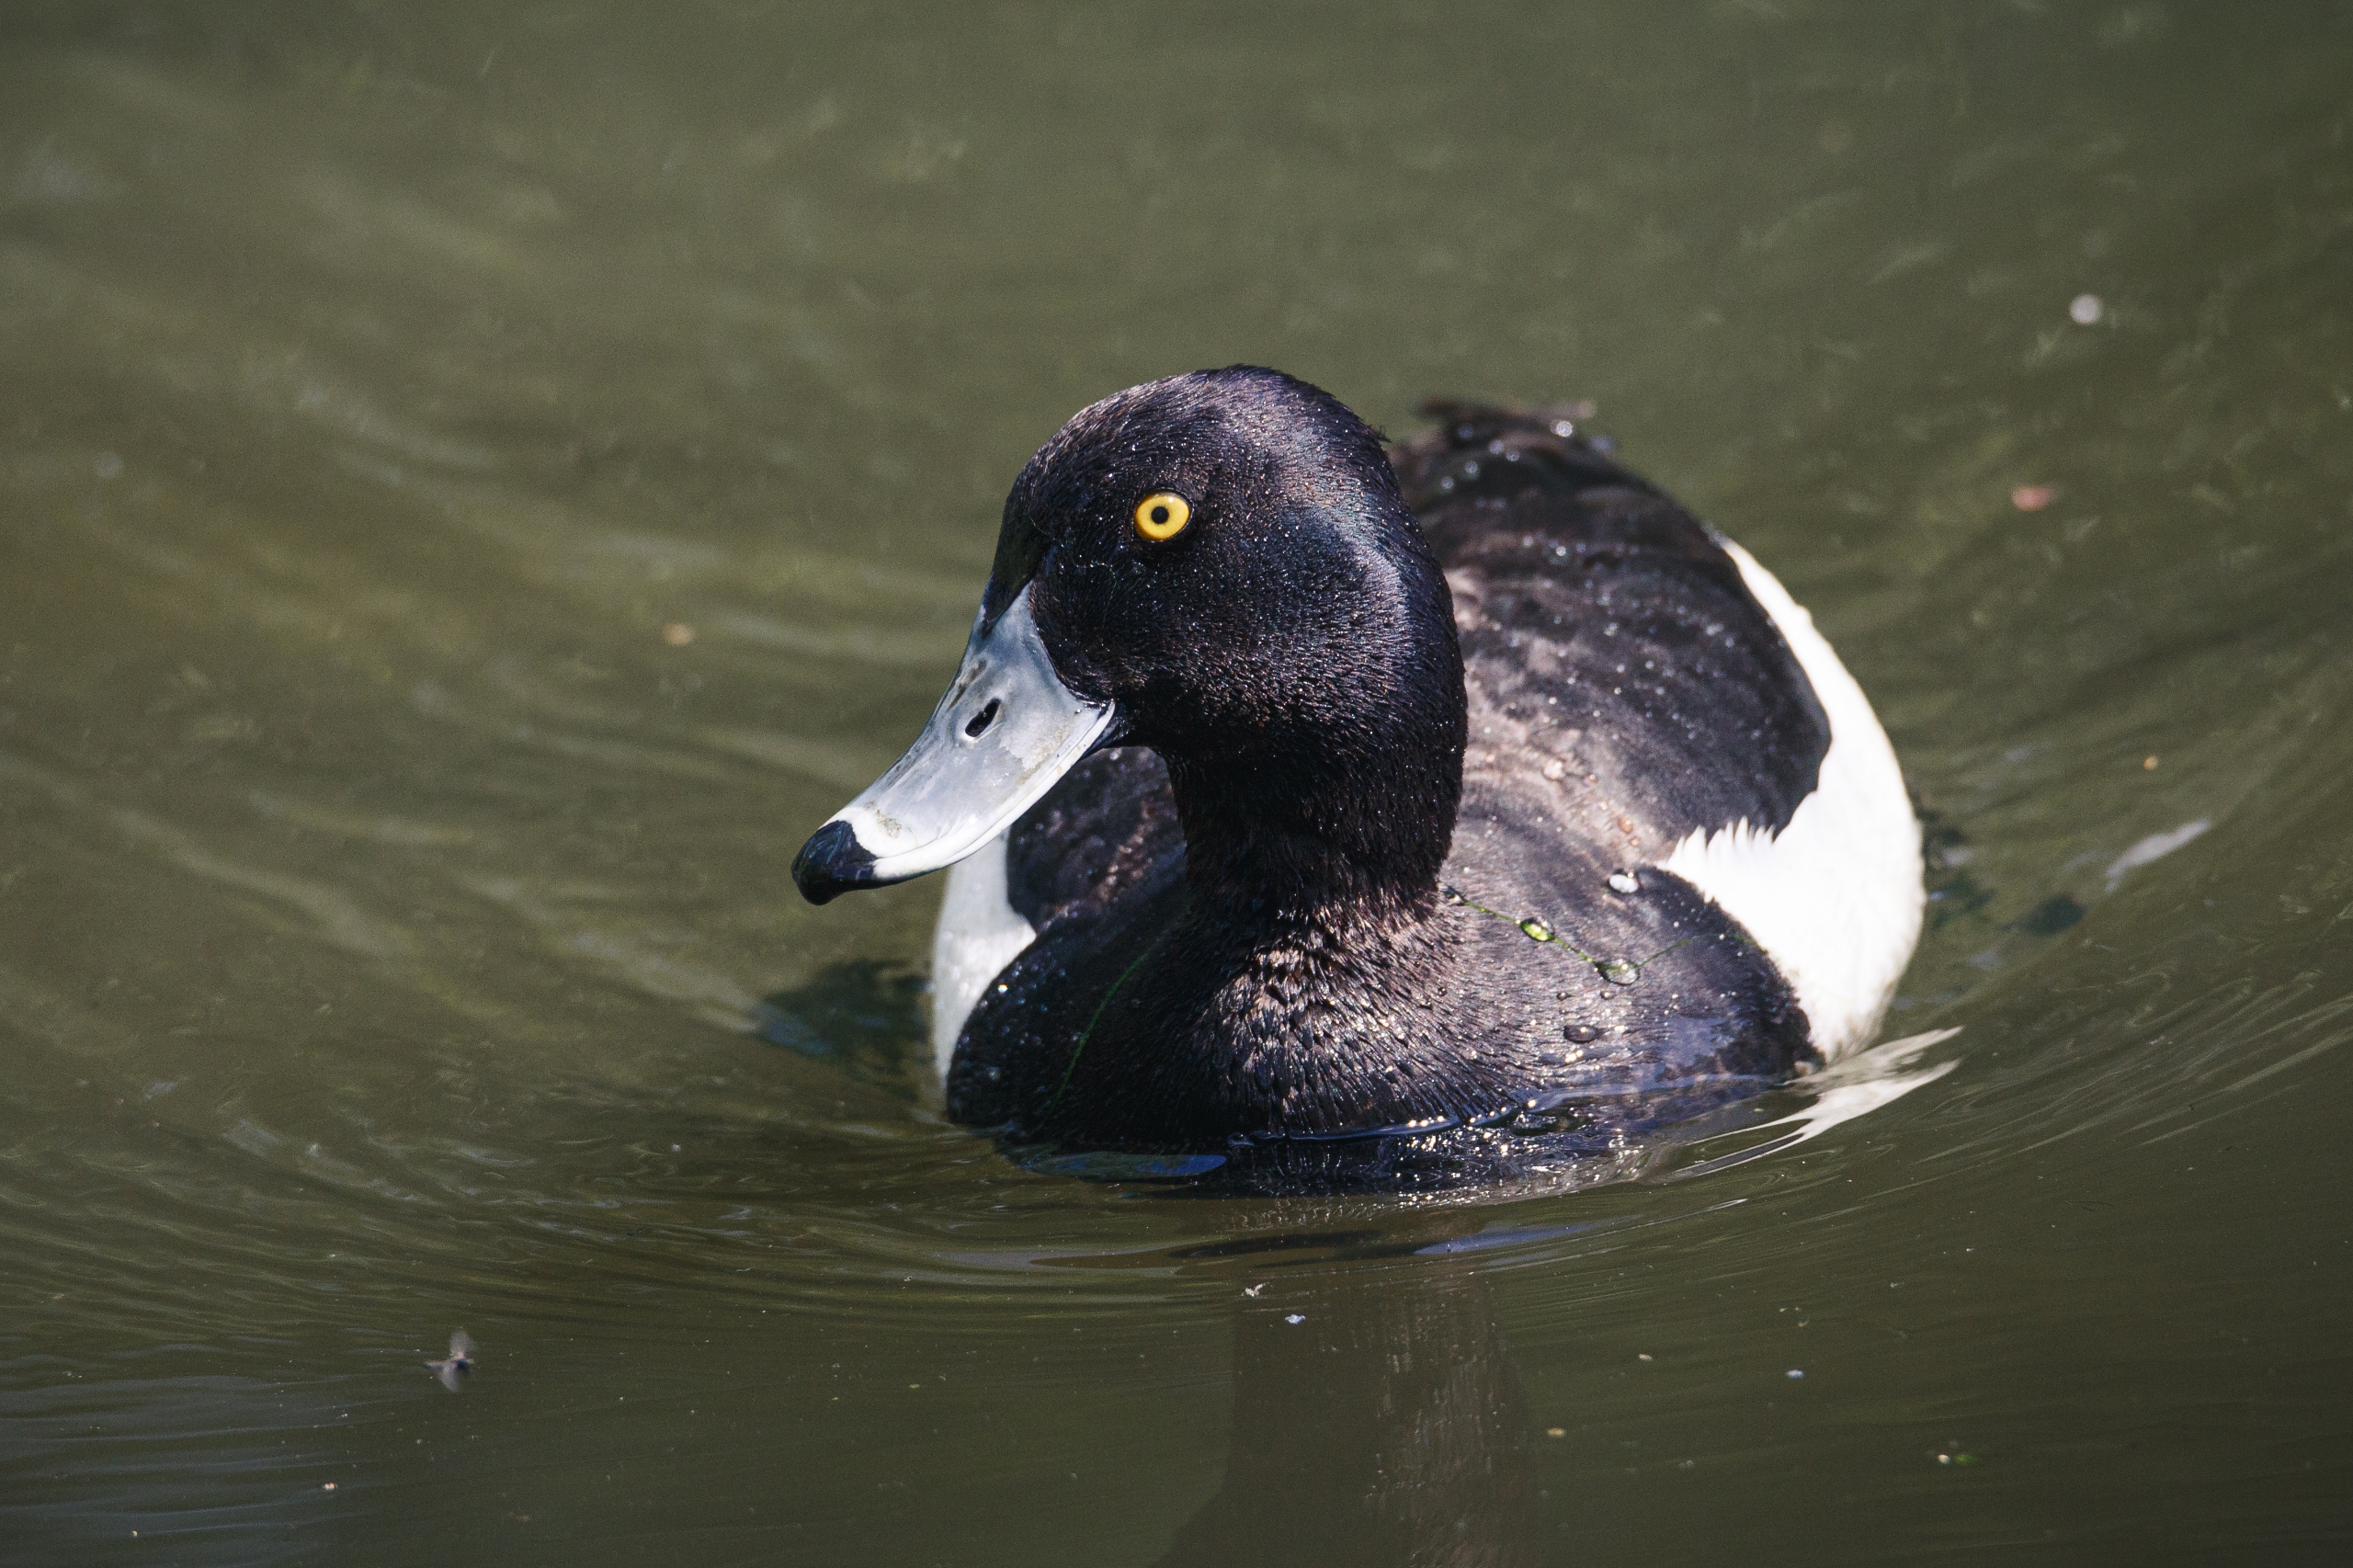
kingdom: Animalia
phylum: Chordata
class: Aves
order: Anseriformes
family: Anatidae
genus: Aythya
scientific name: Aythya fuligula
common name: Troldand
